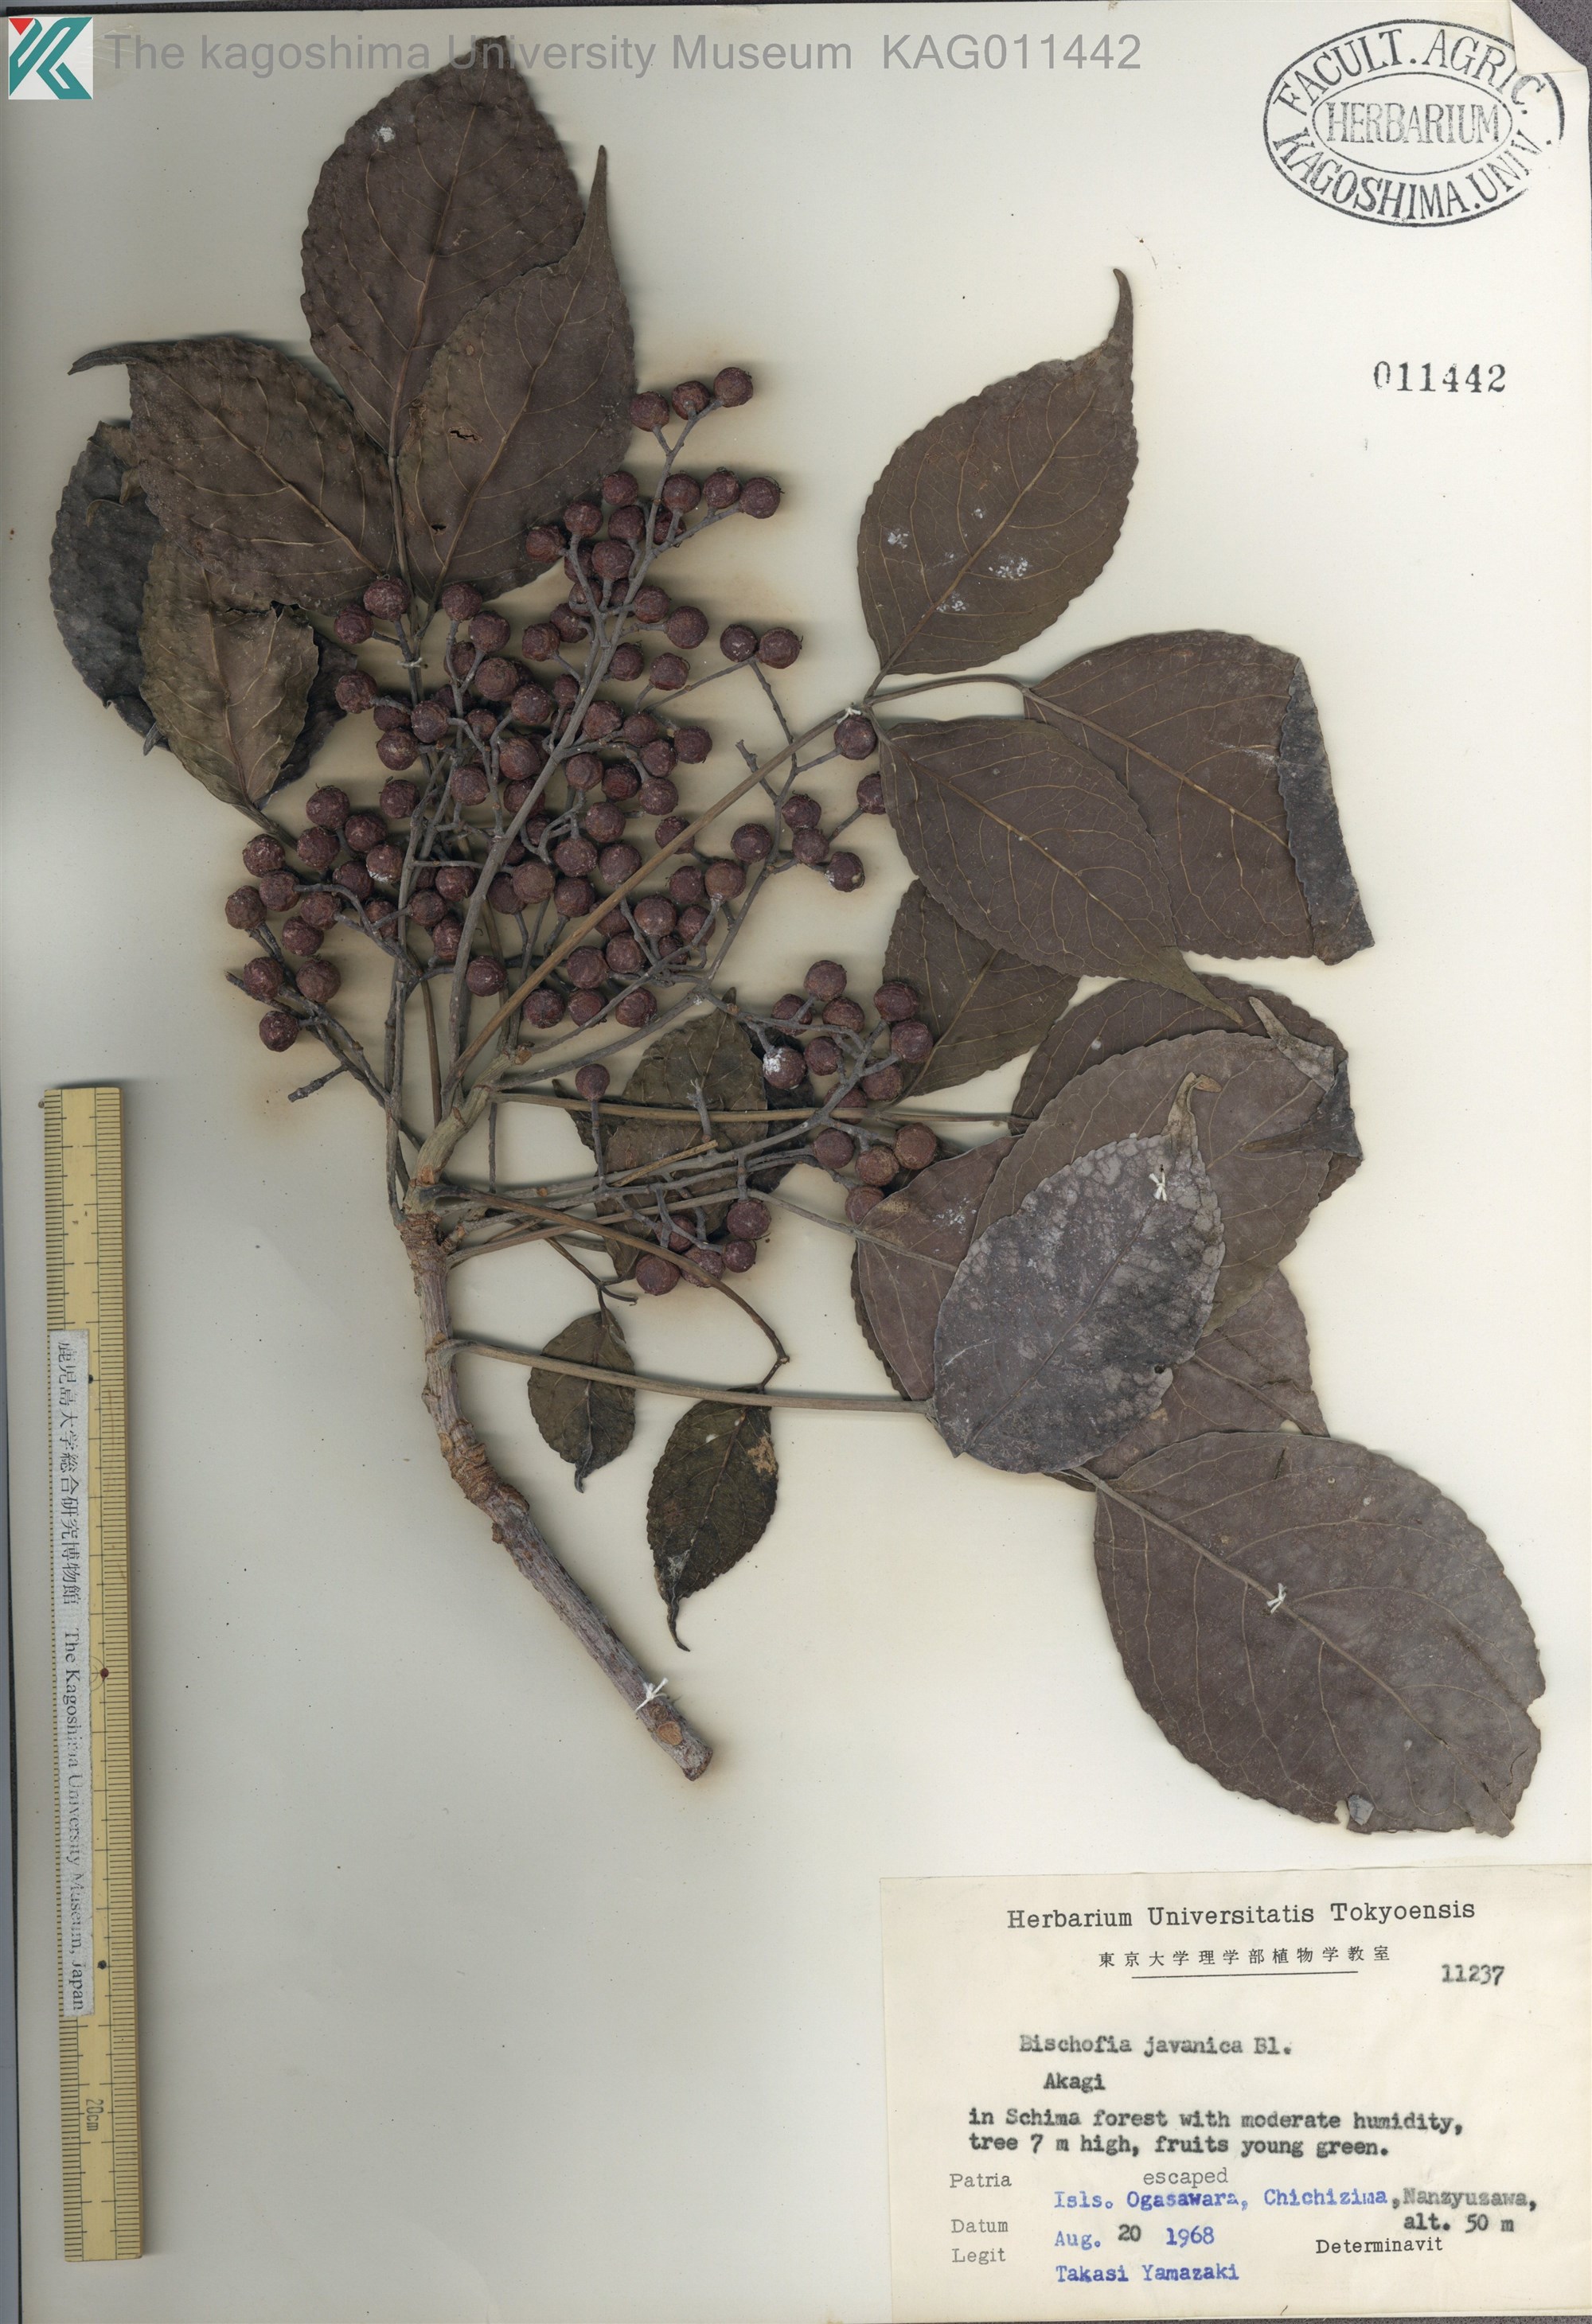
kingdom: Plantae
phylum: Tracheophyta
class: Magnoliopsida
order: Malpighiales
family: Phyllanthaceae
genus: Bischofia
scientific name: Bischofia javanica
